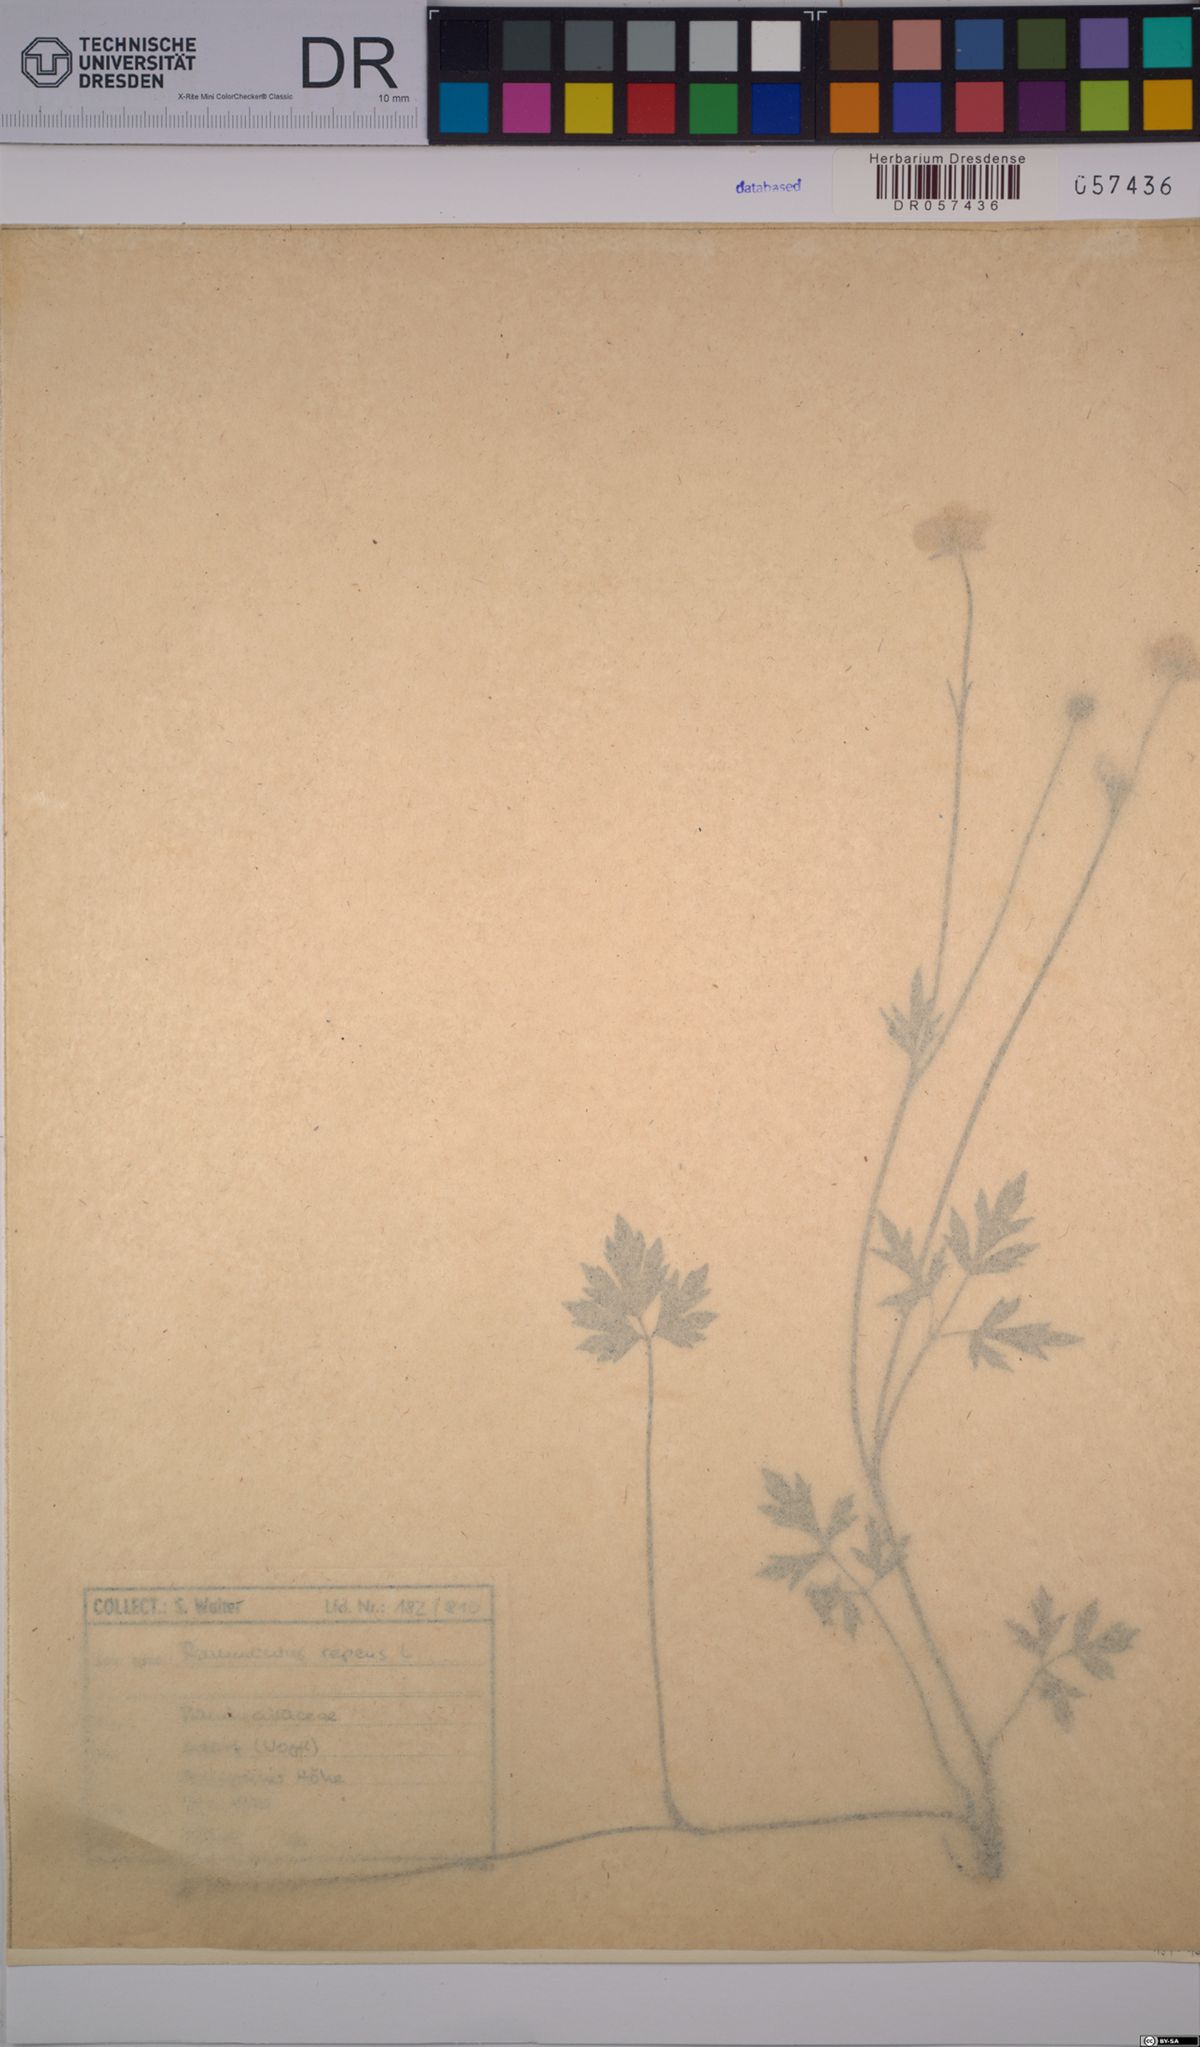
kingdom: Plantae
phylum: Tracheophyta
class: Magnoliopsida
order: Ranunculales
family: Ranunculaceae
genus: Ranunculus
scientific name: Ranunculus repens
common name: Creeping buttercup
